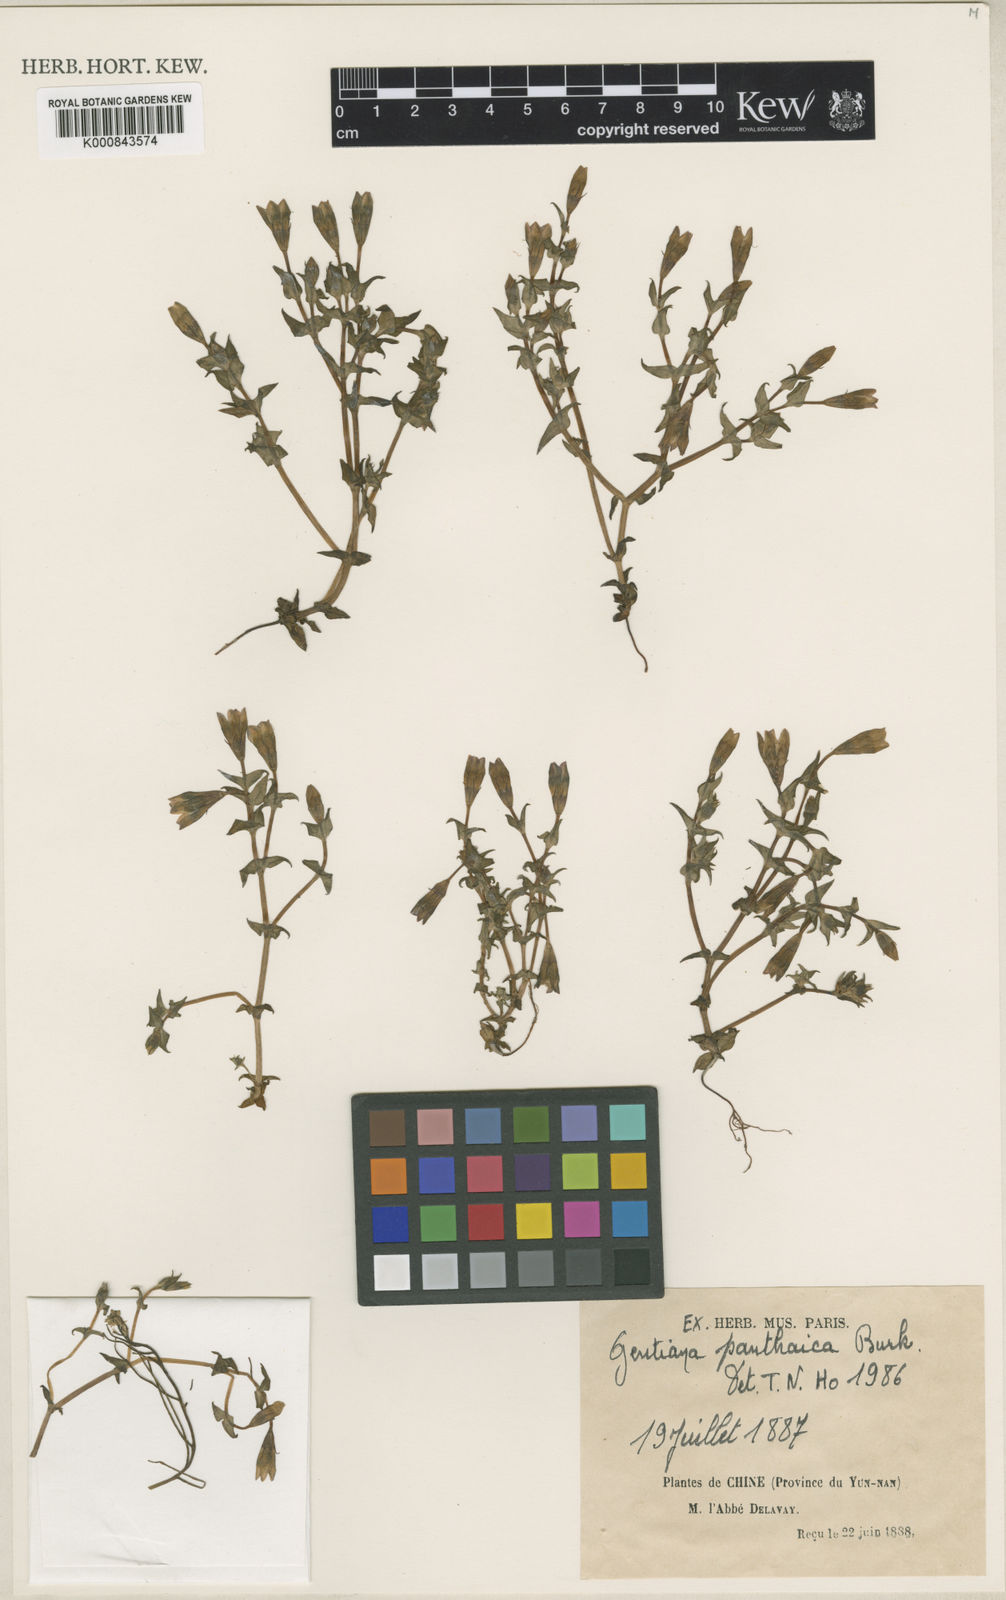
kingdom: Plantae
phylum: Tracheophyta
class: Magnoliopsida
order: Gentianales
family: Gentianaceae
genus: Gentiana
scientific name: Gentiana panthaica
